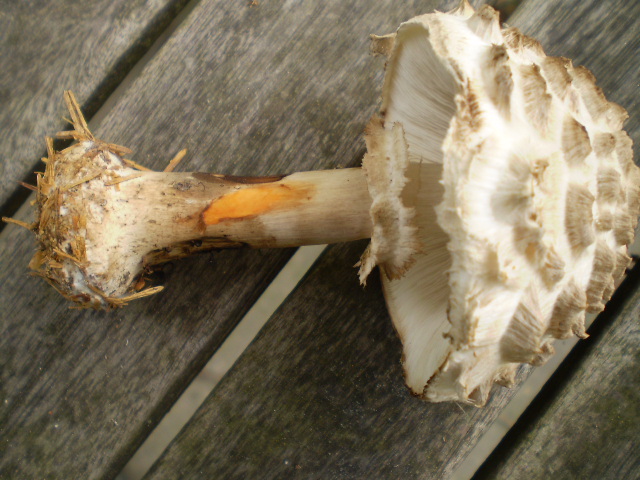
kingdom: Fungi
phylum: Basidiomycota
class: Agaricomycetes
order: Agaricales
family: Agaricaceae
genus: Chlorophyllum
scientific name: Chlorophyllum rhacodes
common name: ægte rabarberhat
